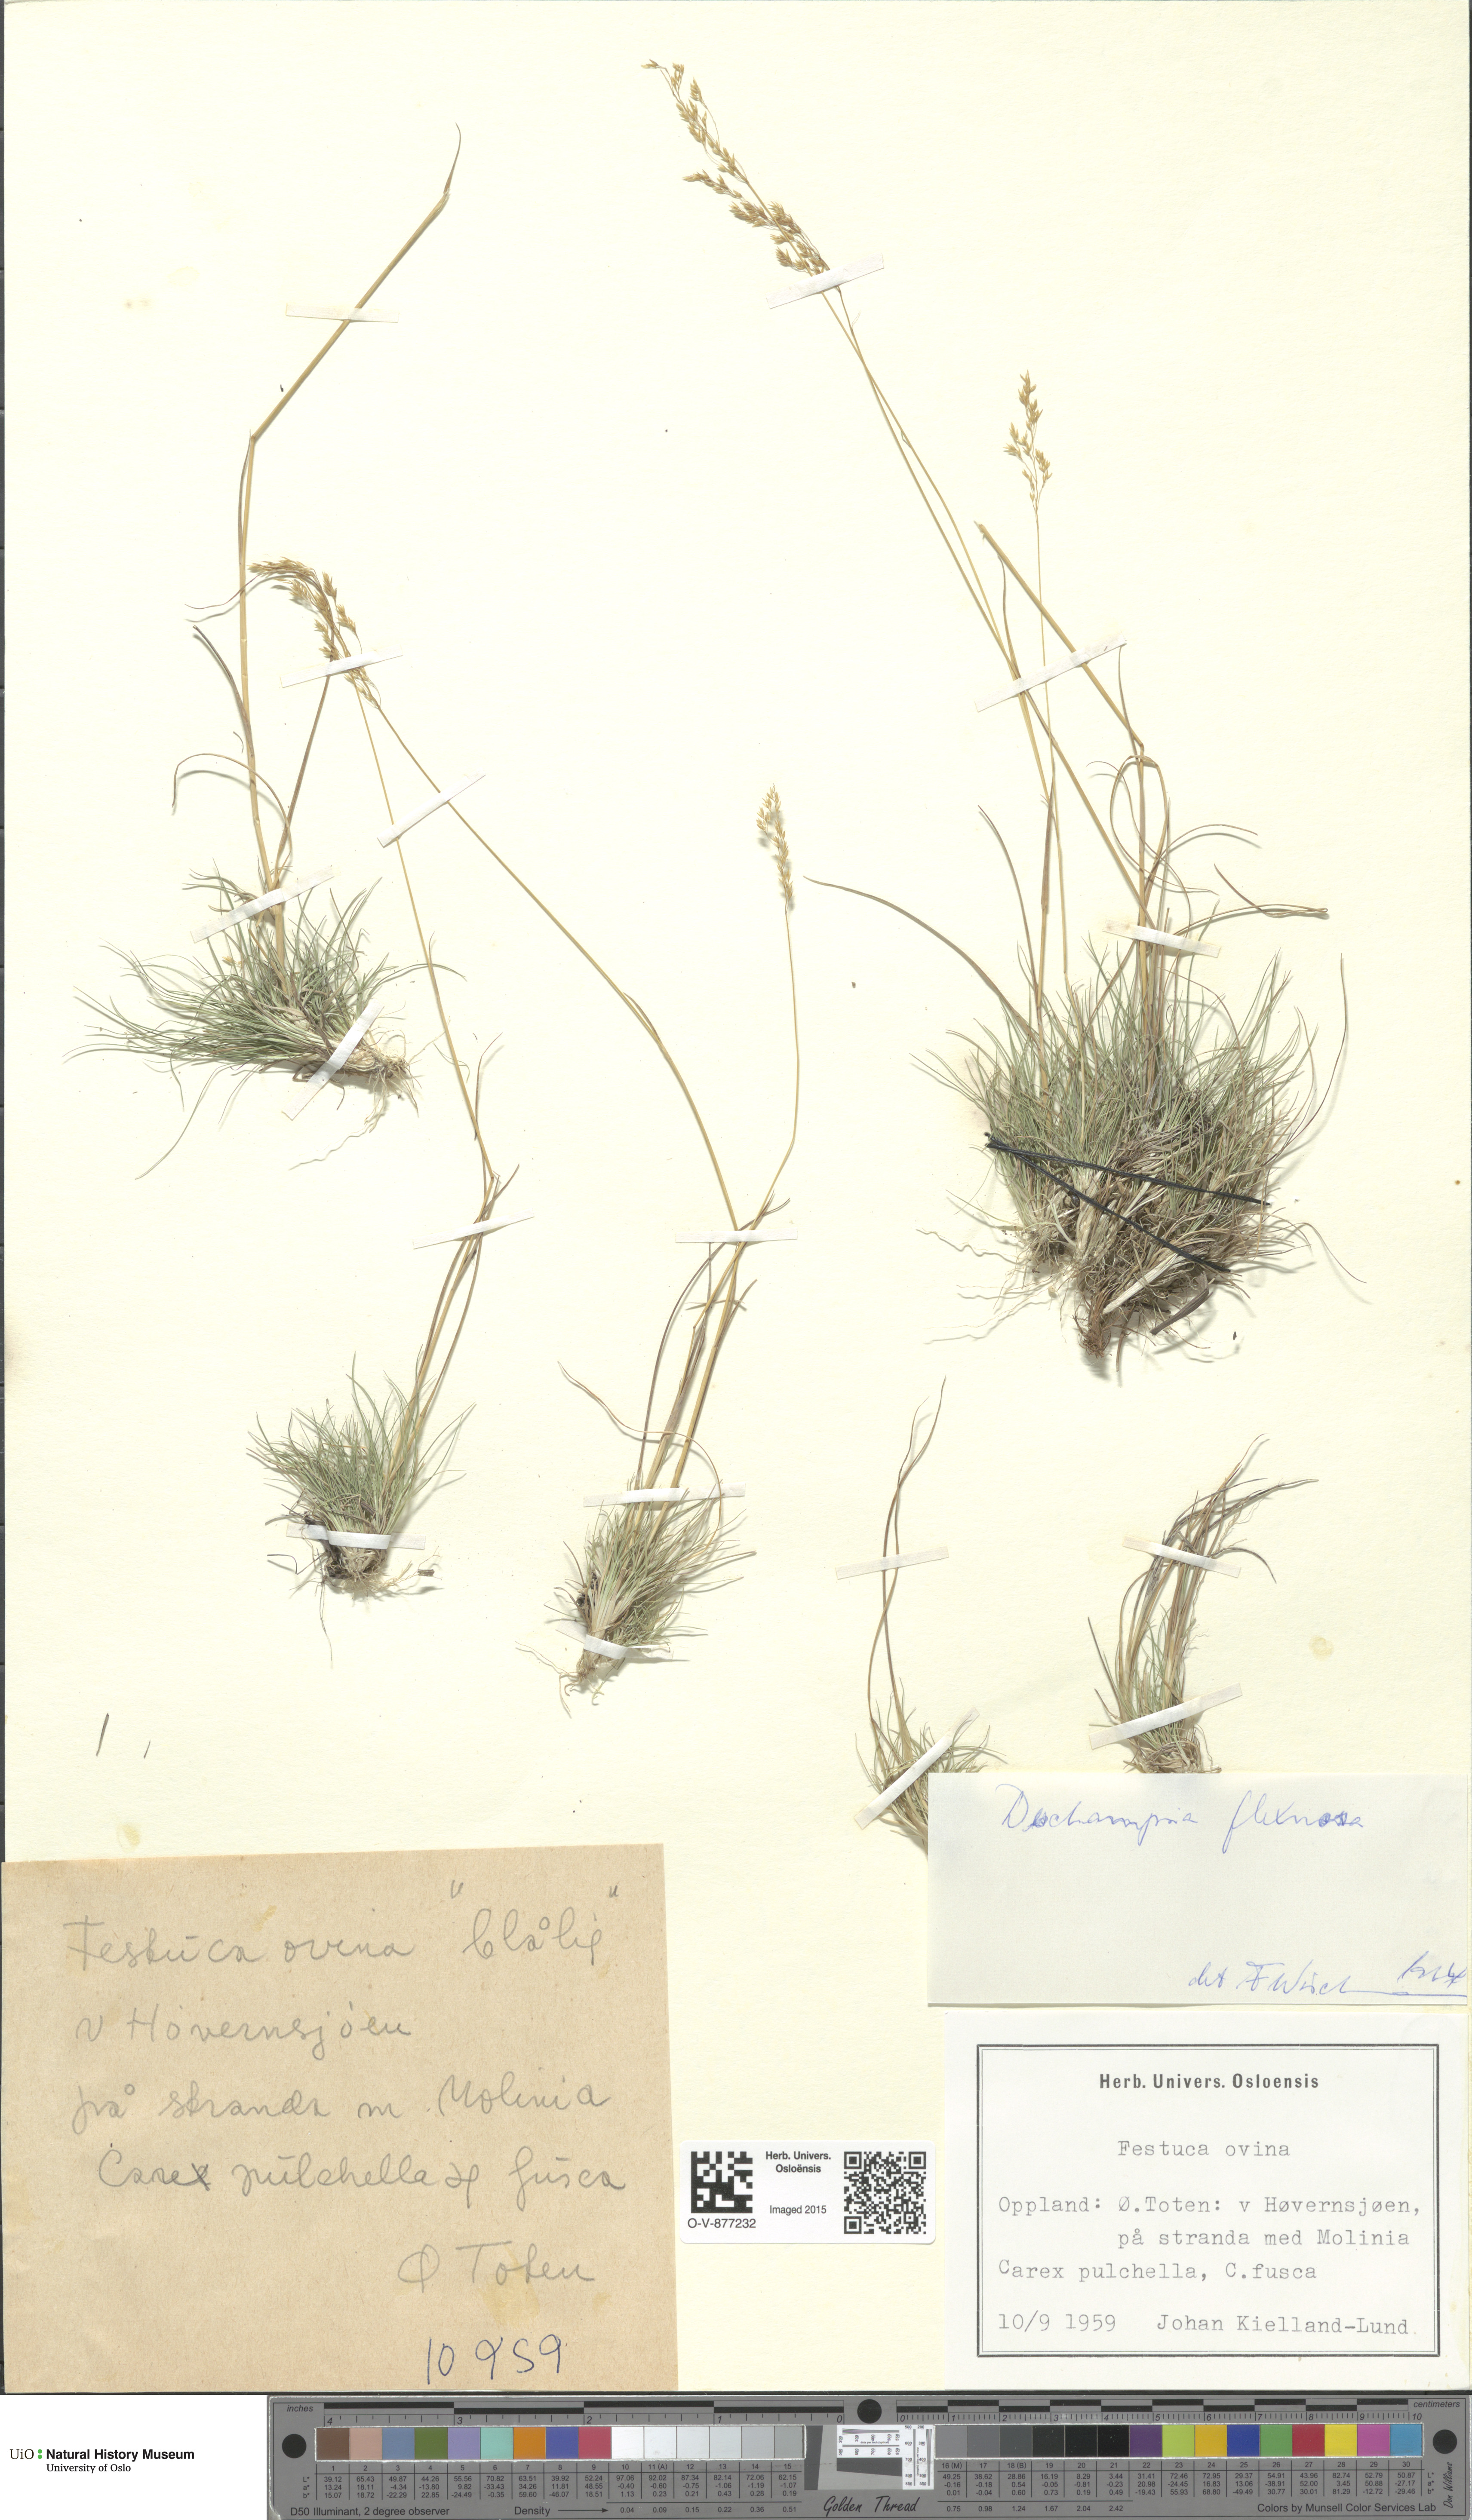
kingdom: Plantae
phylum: Tracheophyta
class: Liliopsida
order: Poales
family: Poaceae
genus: Avenella
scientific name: Avenella flexuosa
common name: Wavy hairgrass
